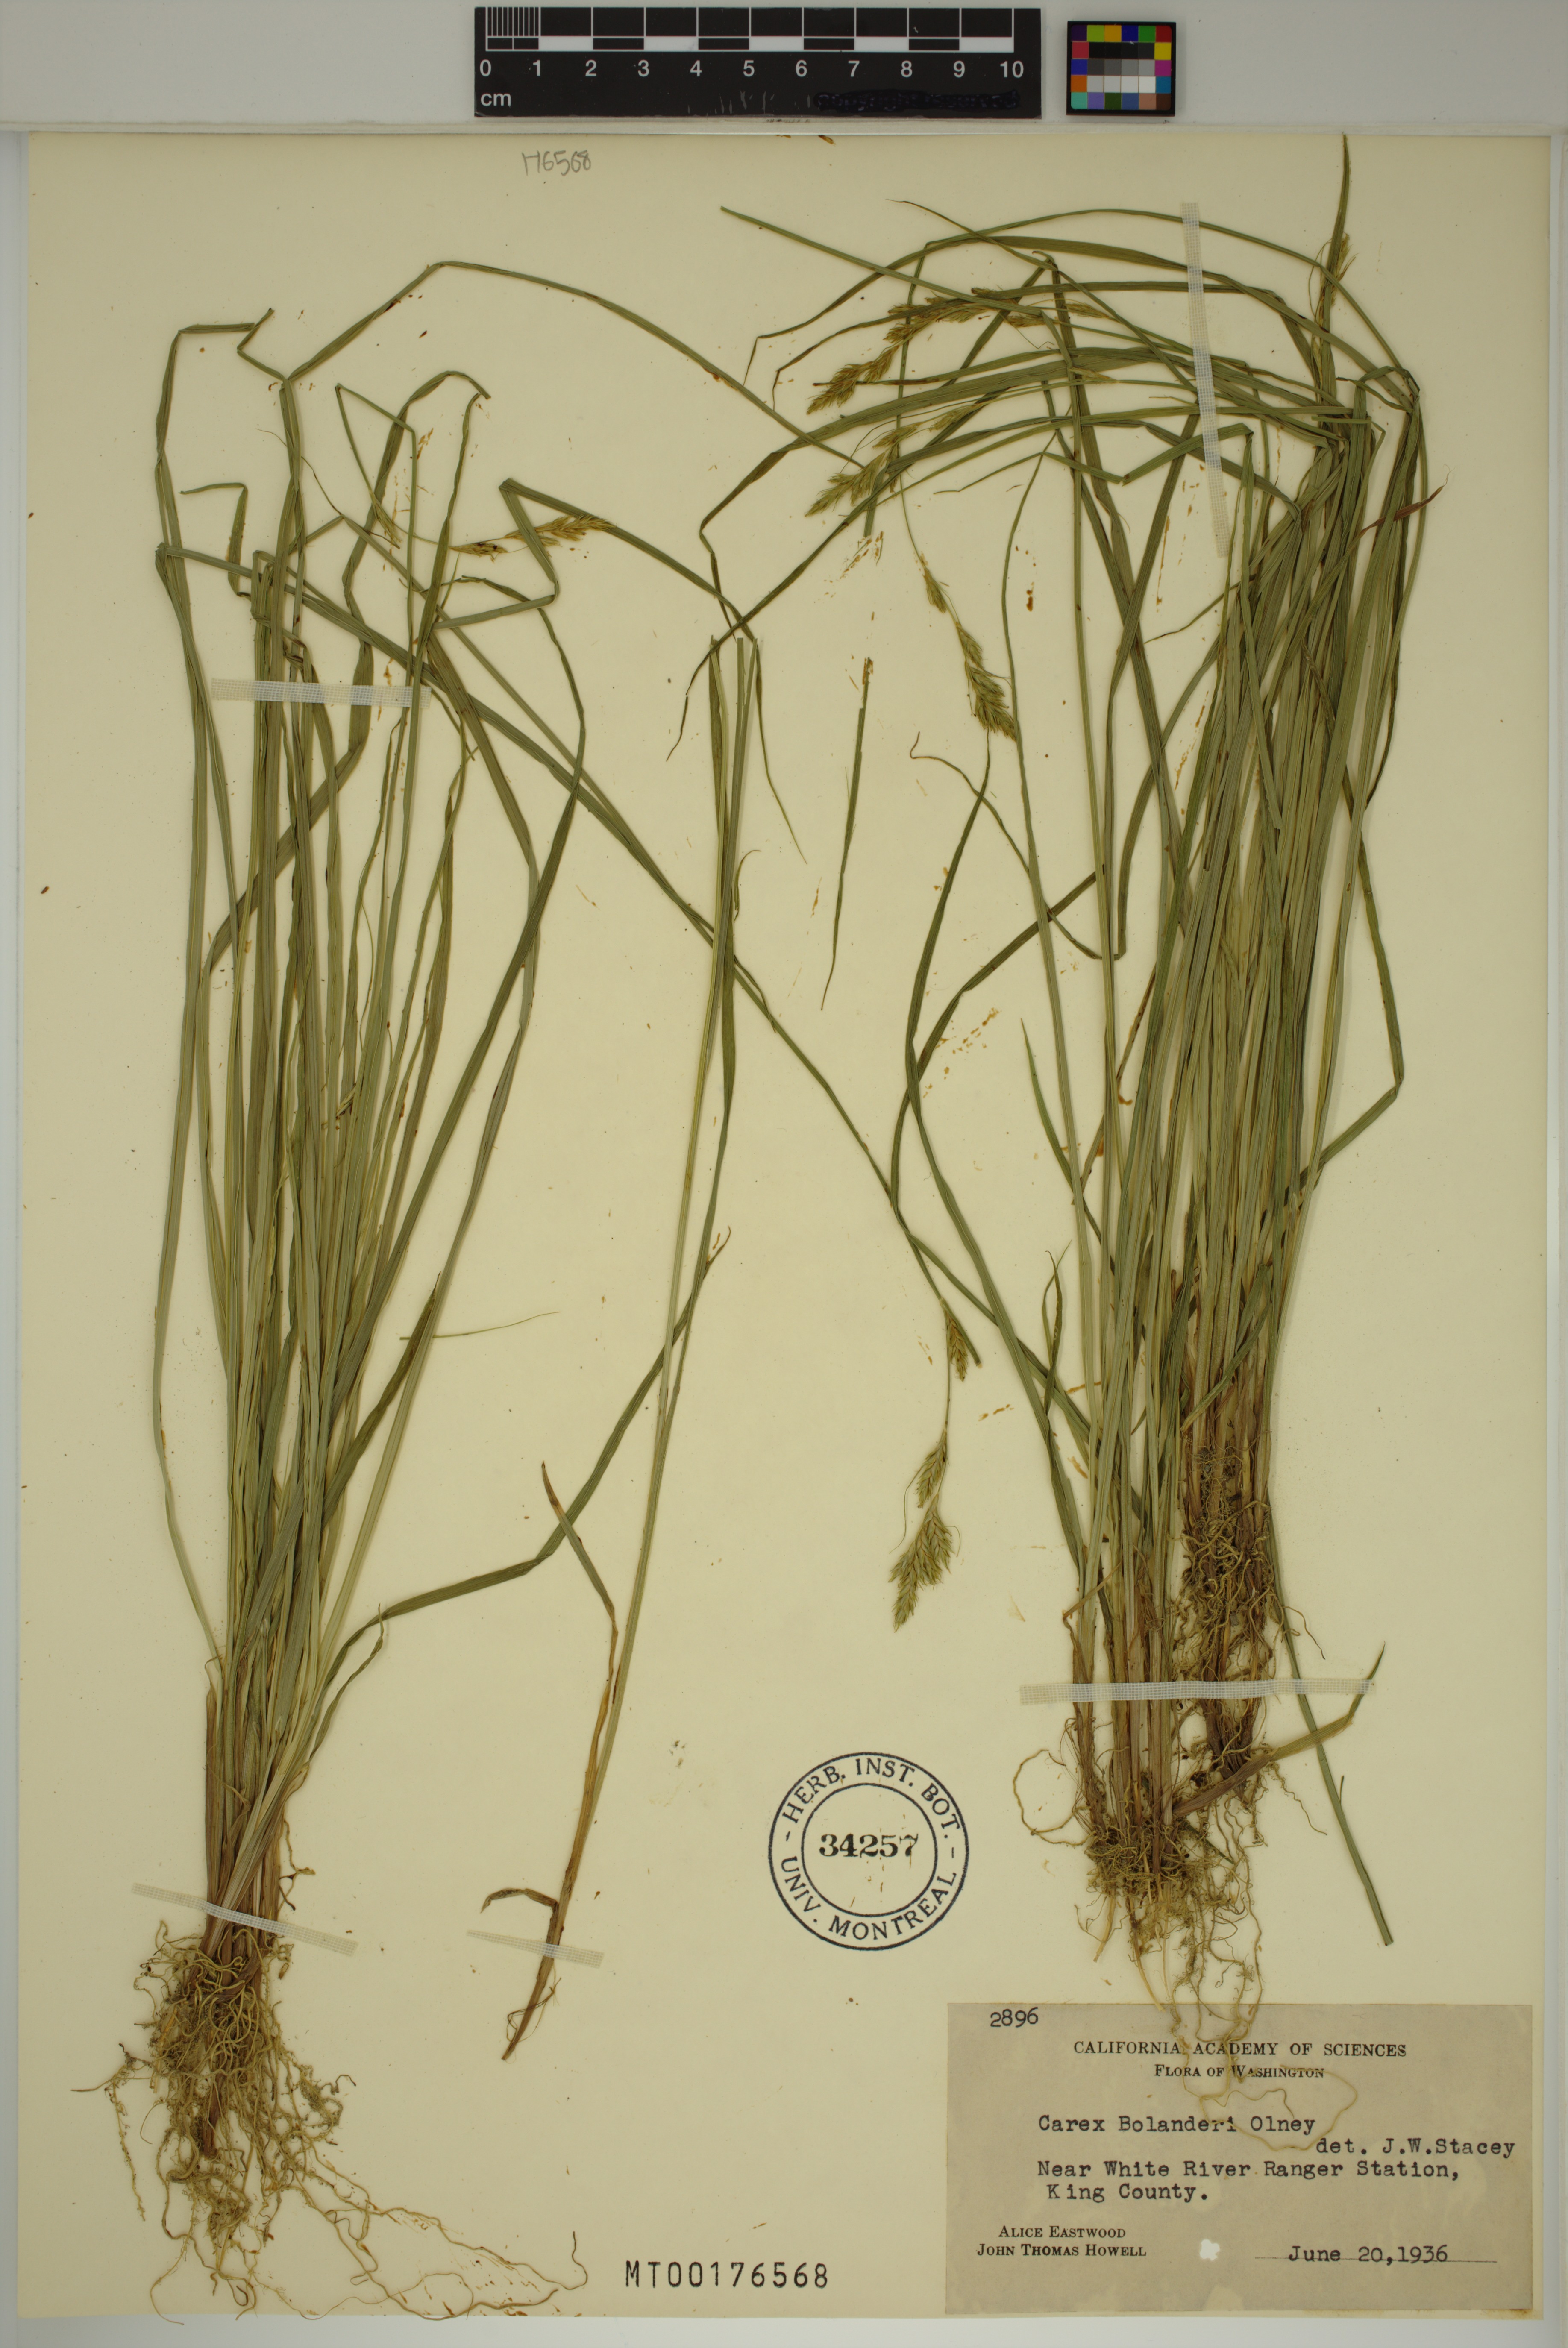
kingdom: Plantae
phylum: Tracheophyta
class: Liliopsida
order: Poales
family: Cyperaceae
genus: Carex
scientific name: Carex bolanderi
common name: Bolander's sedge
